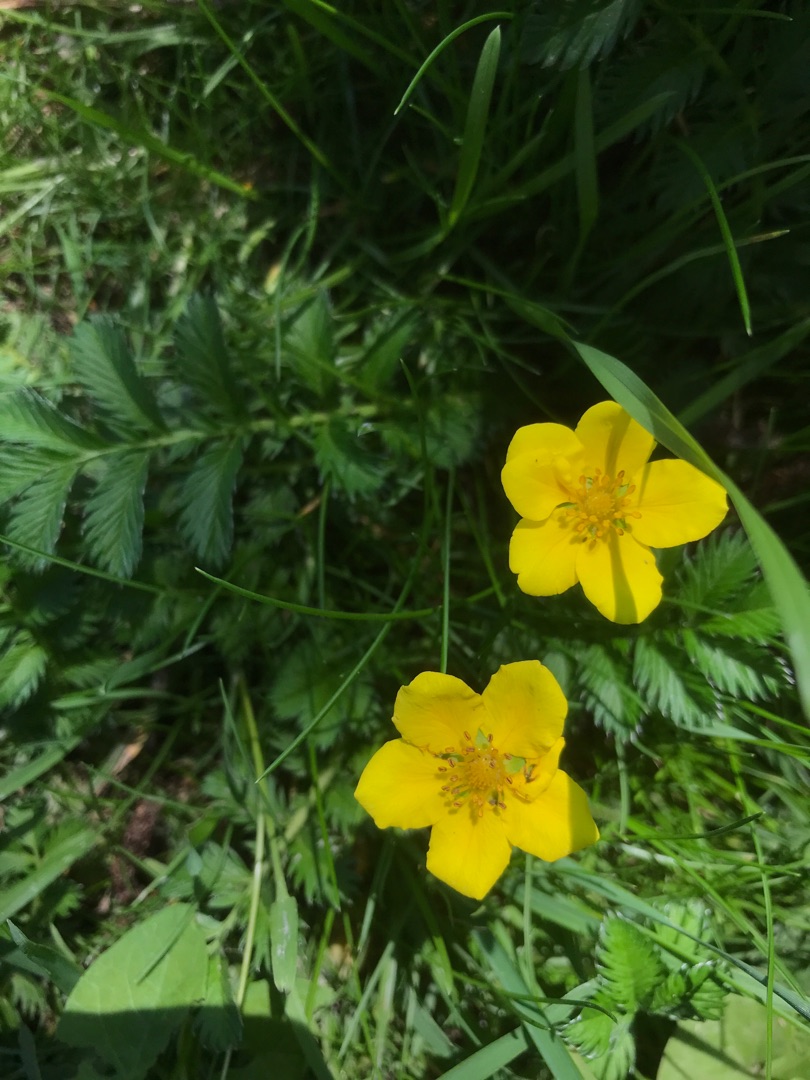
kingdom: Plantae
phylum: Tracheophyta
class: Magnoliopsida
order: Rosales
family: Rosaceae
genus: Argentina
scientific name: Argentina anserina
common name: Gåsepotentil
